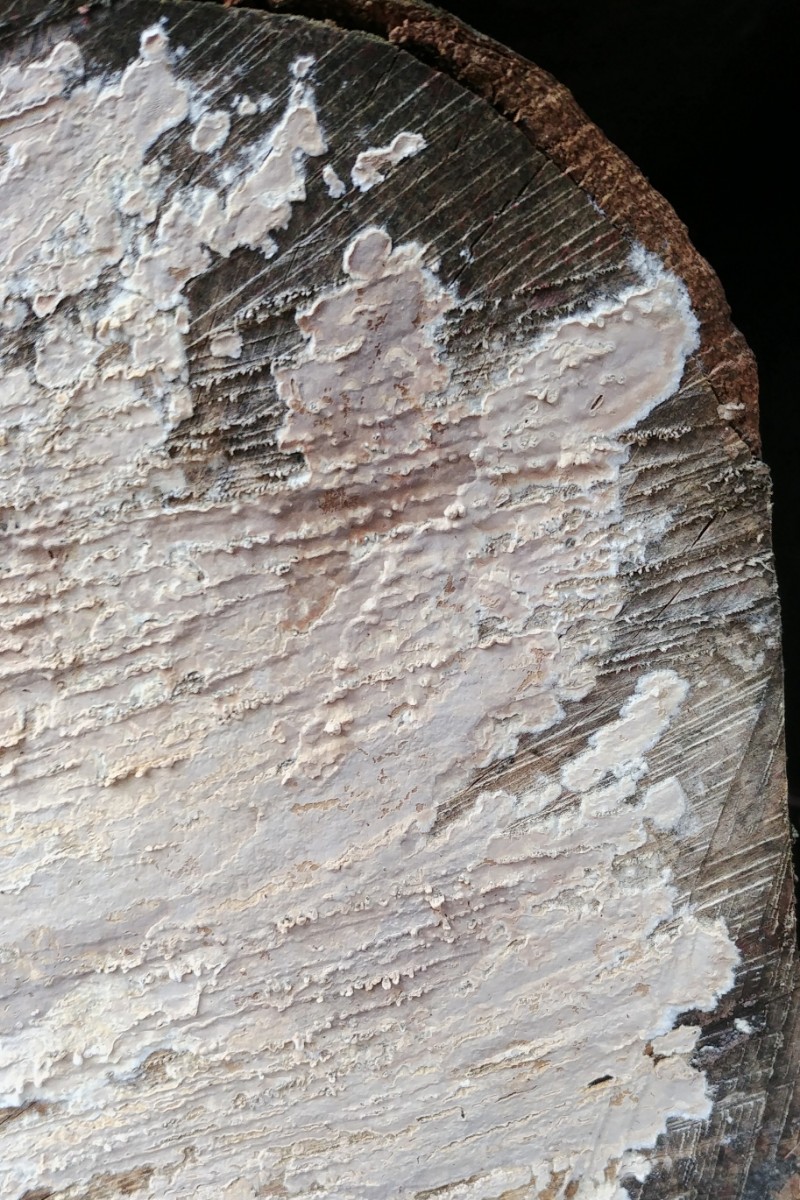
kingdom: Fungi
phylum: Basidiomycota
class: Agaricomycetes
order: Agaricales
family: Physalacriaceae
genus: Cylindrobasidium
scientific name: Cylindrobasidium evolvens
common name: sprækkehinde
